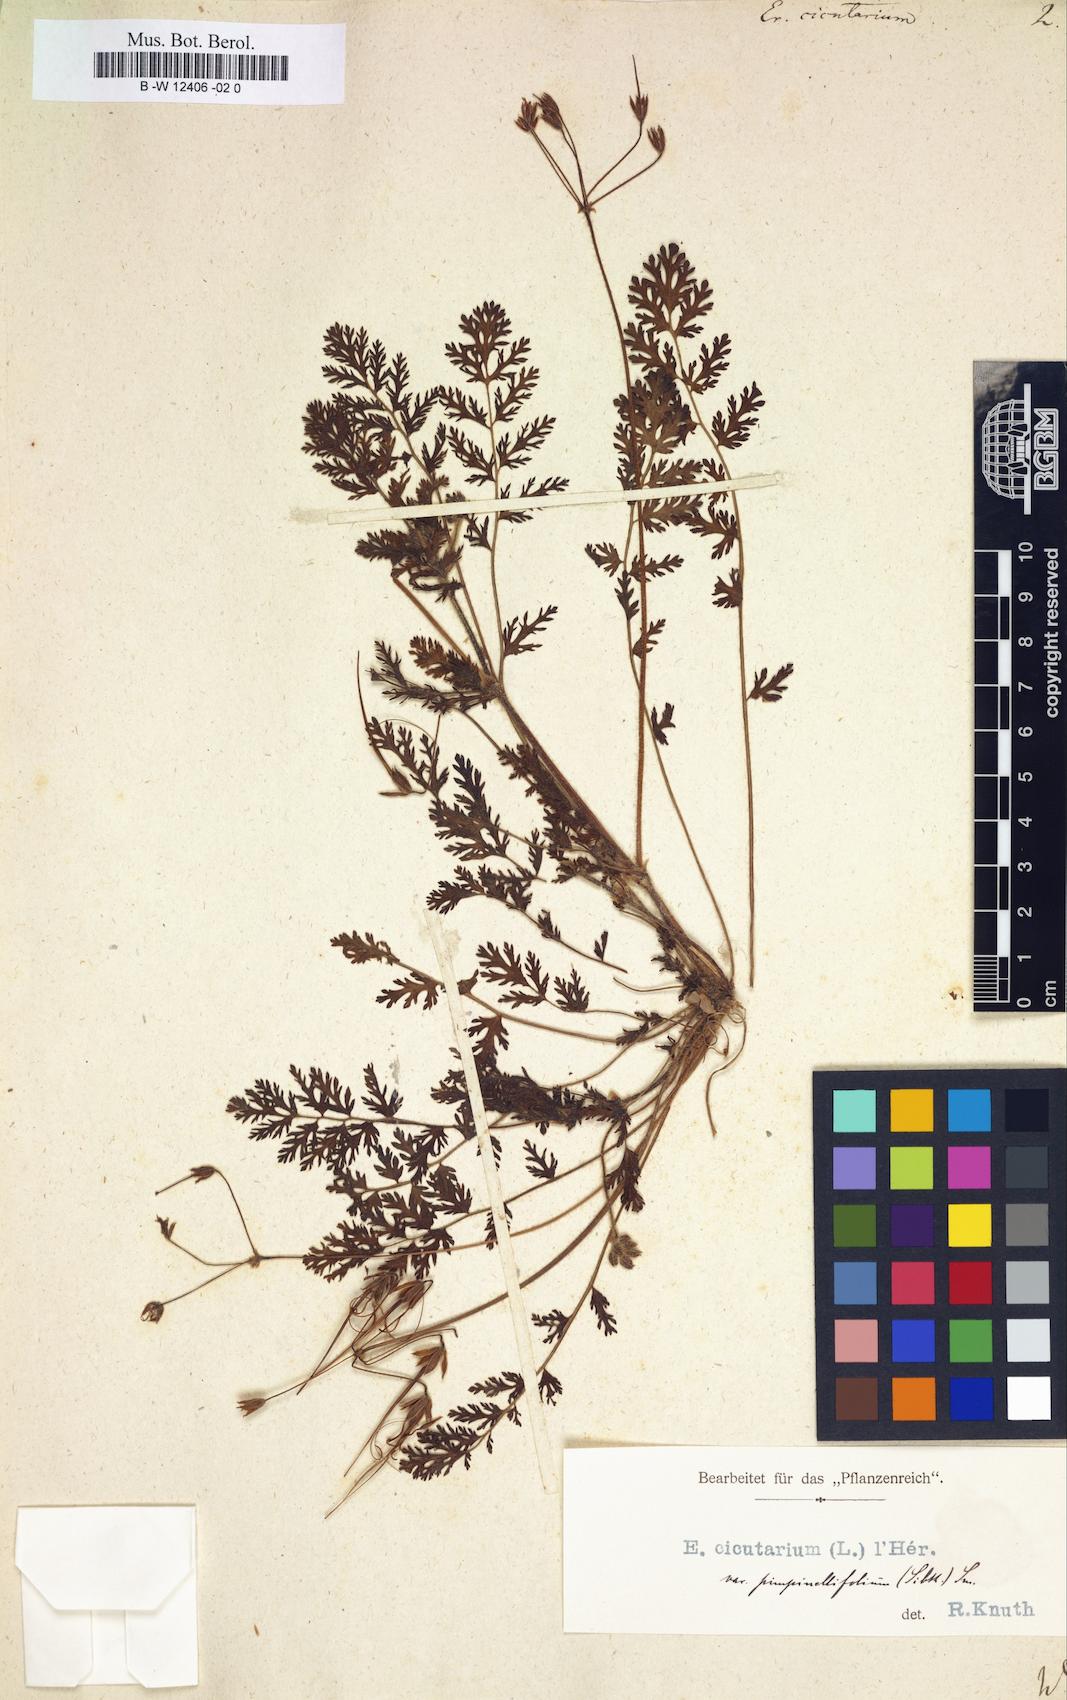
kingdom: Plantae
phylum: Tracheophyta
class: Magnoliopsida
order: Geraniales
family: Geraniaceae
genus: Erodium
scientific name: Erodium cicutarium
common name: Common stork's-bill
